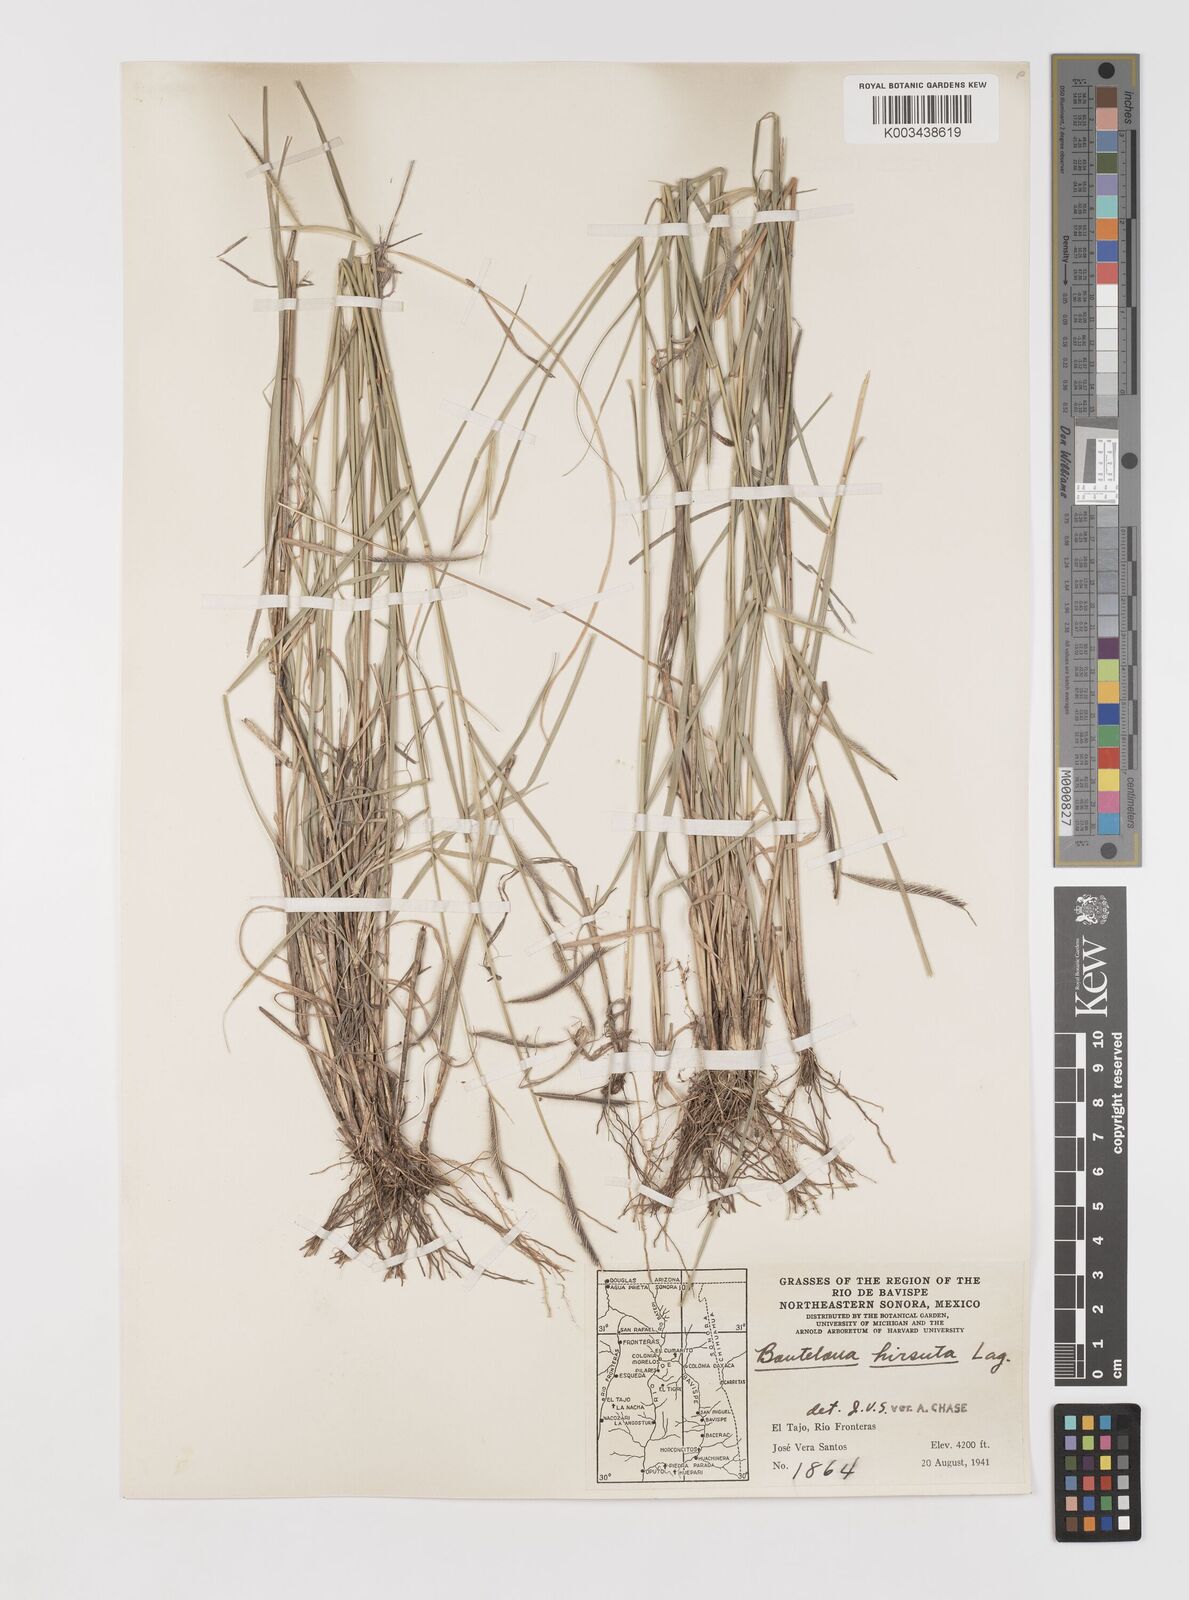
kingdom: Plantae
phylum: Tracheophyta
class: Liliopsida
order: Poales
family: Poaceae
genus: Bouteloua
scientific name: Bouteloua hirsuta
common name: Hairy grama
